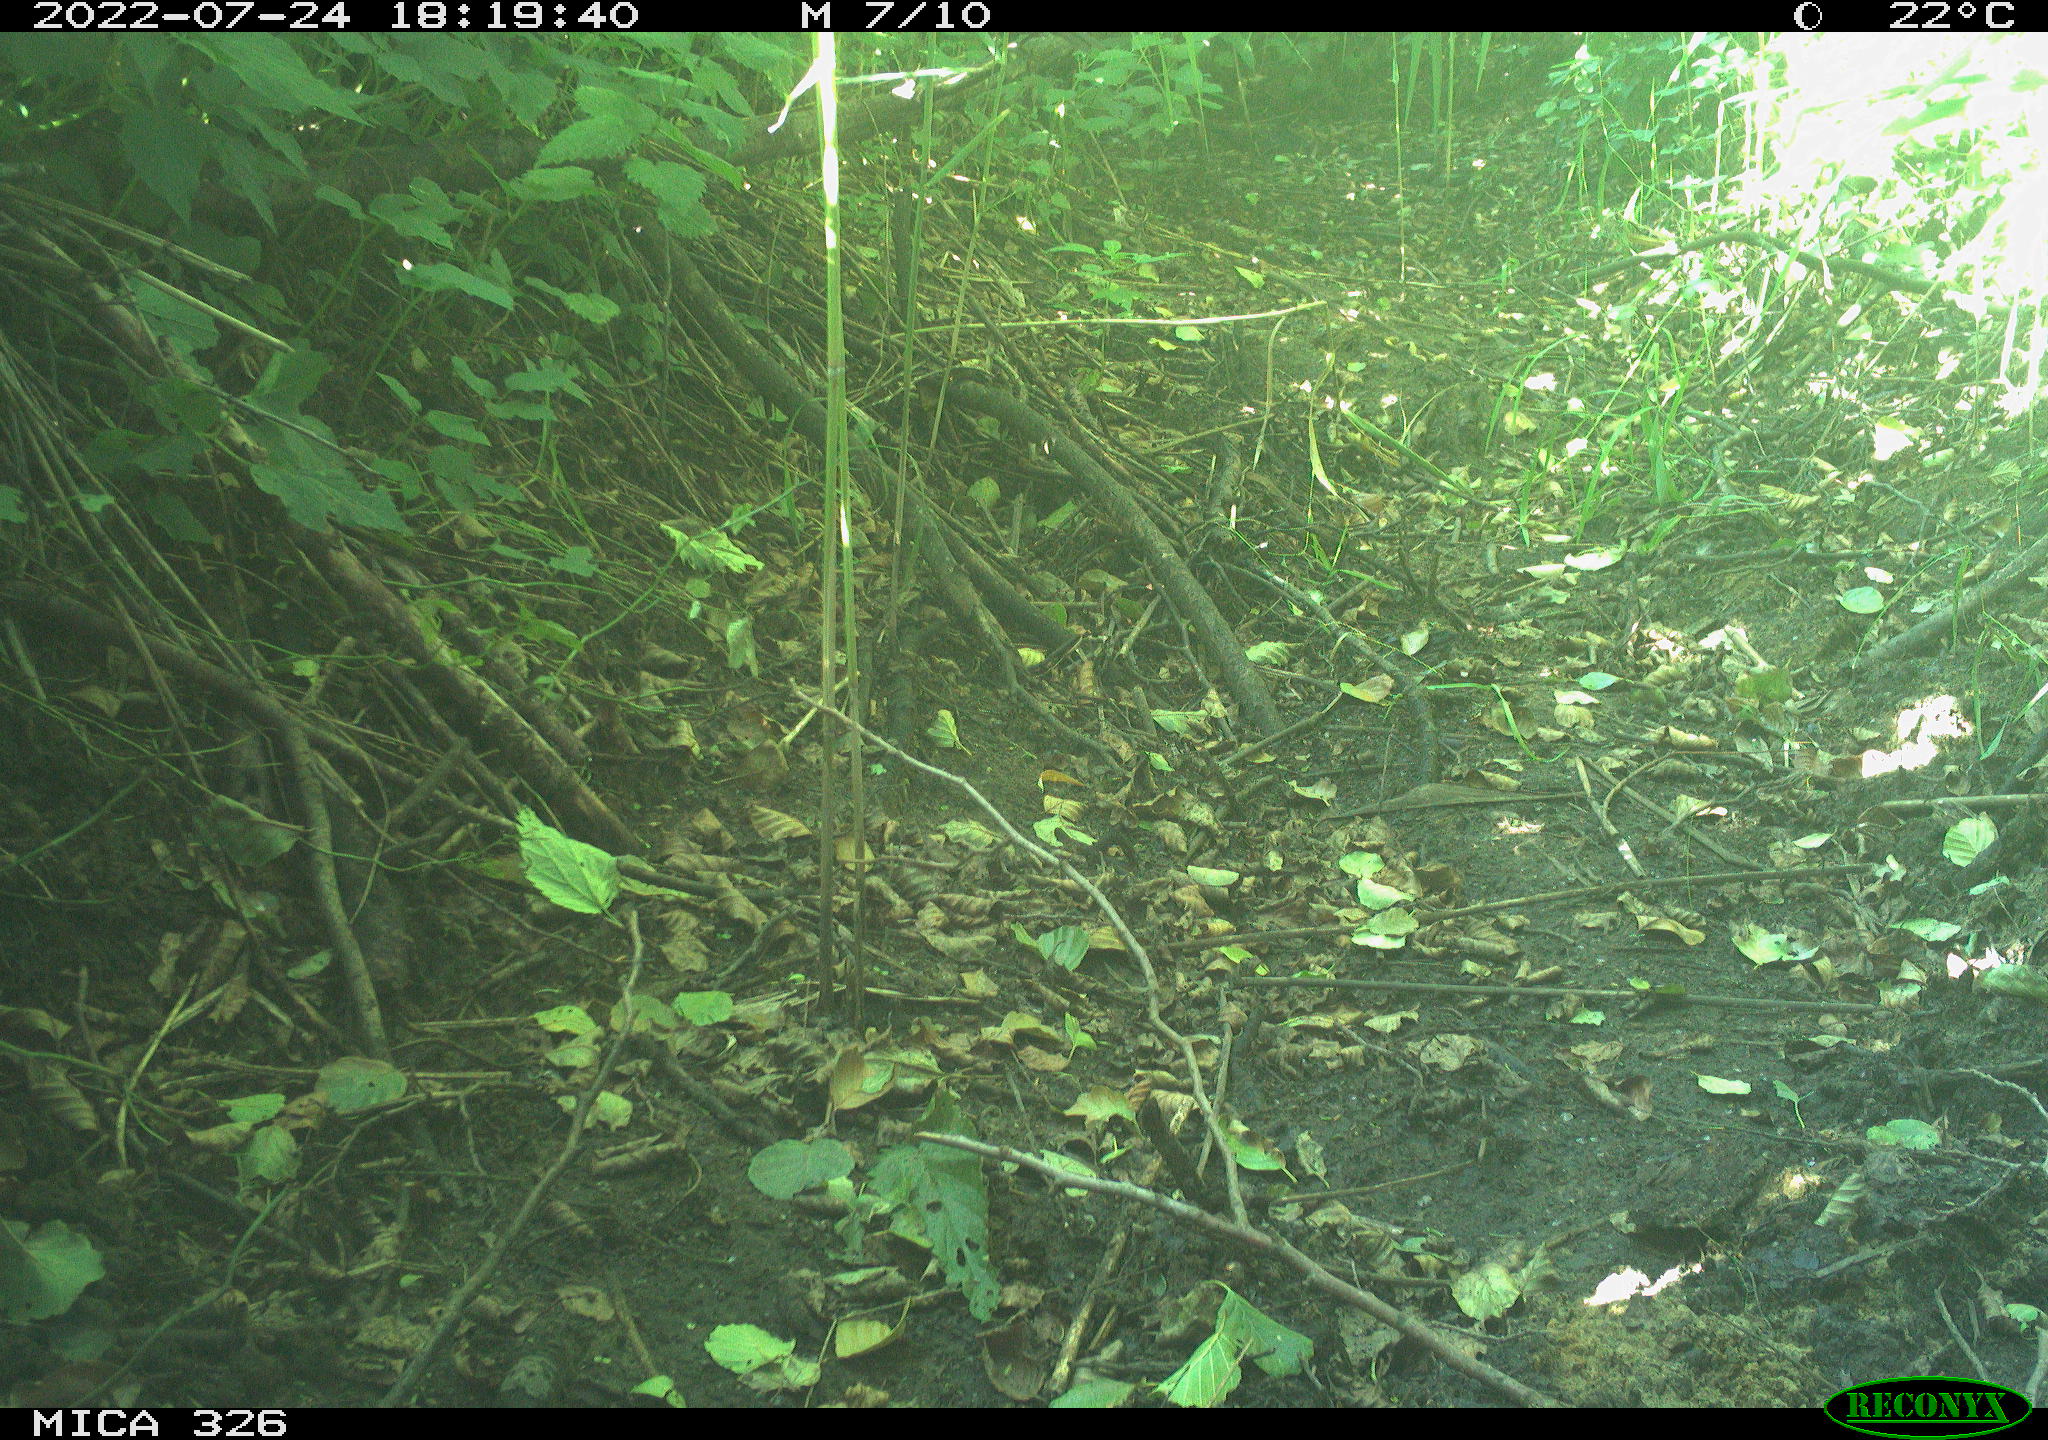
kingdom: Animalia
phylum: Chordata
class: Aves
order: Passeriformes
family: Turdidae
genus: Turdus
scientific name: Turdus
